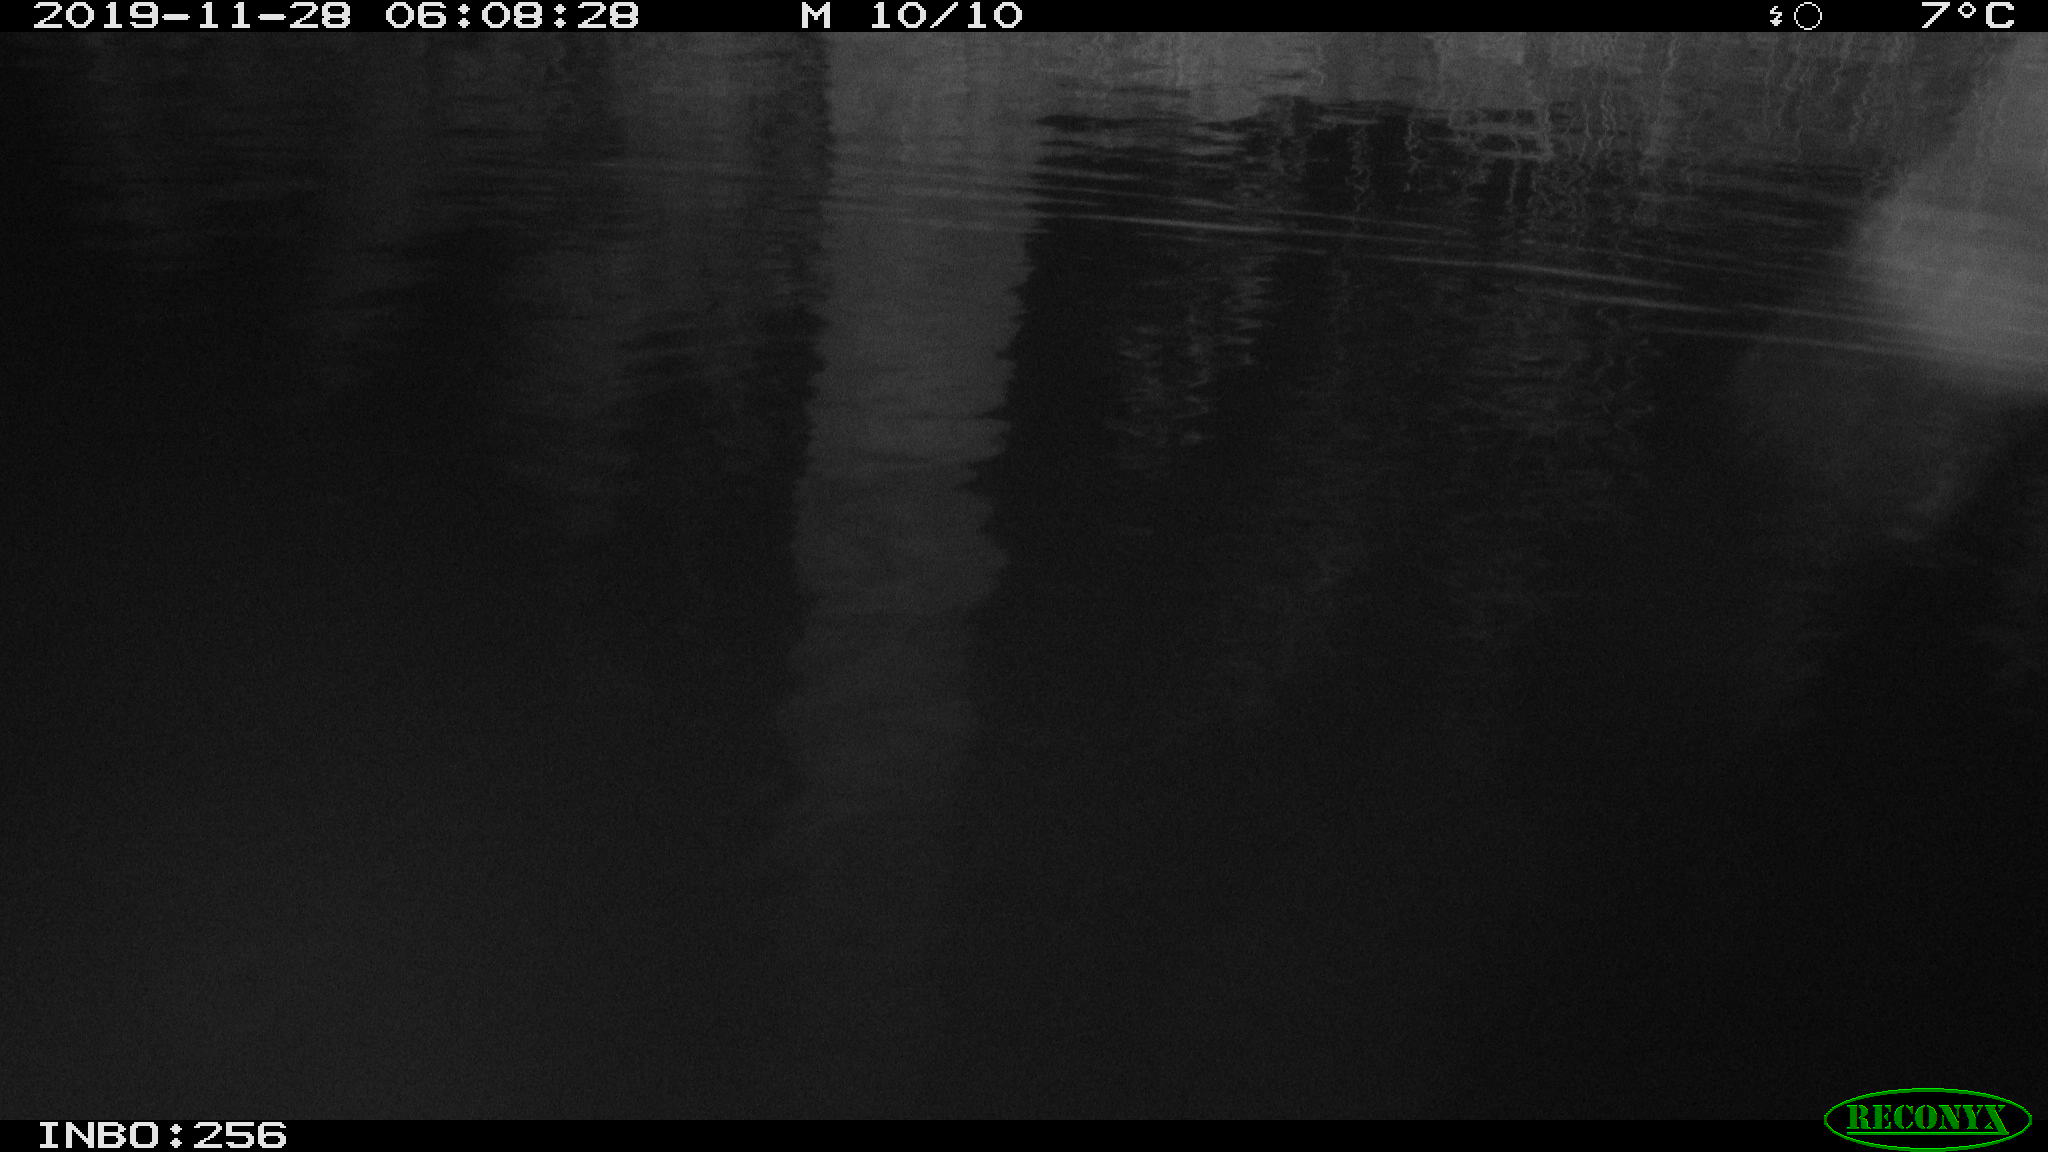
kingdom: Animalia
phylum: Chordata
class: Mammalia
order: Rodentia
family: Cricetidae
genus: Ondatra
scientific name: Ondatra zibethicus
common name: Muskrat
